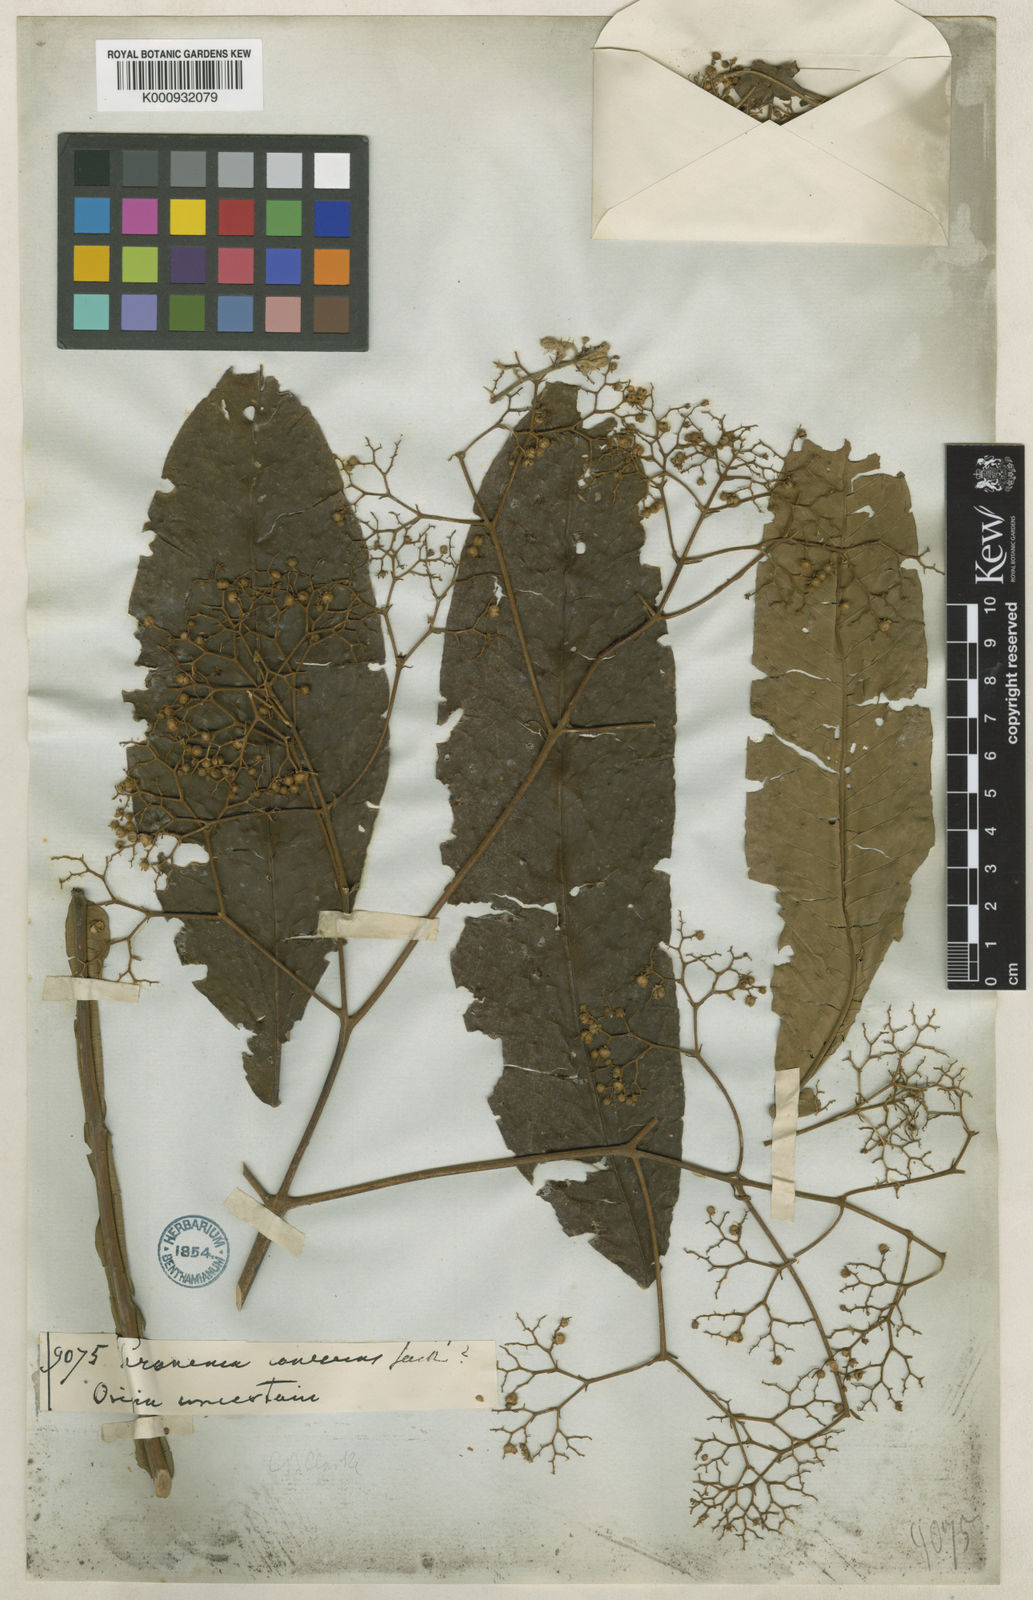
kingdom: Plantae
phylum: Tracheophyta
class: Magnoliopsida
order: Lamiales
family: Lamiaceae
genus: Peronema
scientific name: Peronema canescens
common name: False elder
